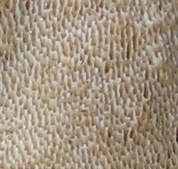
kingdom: Fungi
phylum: Basidiomycota
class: Agaricomycetes
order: Polyporales
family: Polyporaceae
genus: Cerioporus
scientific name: Cerioporus varius
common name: foranderlig stilkporesvamp
